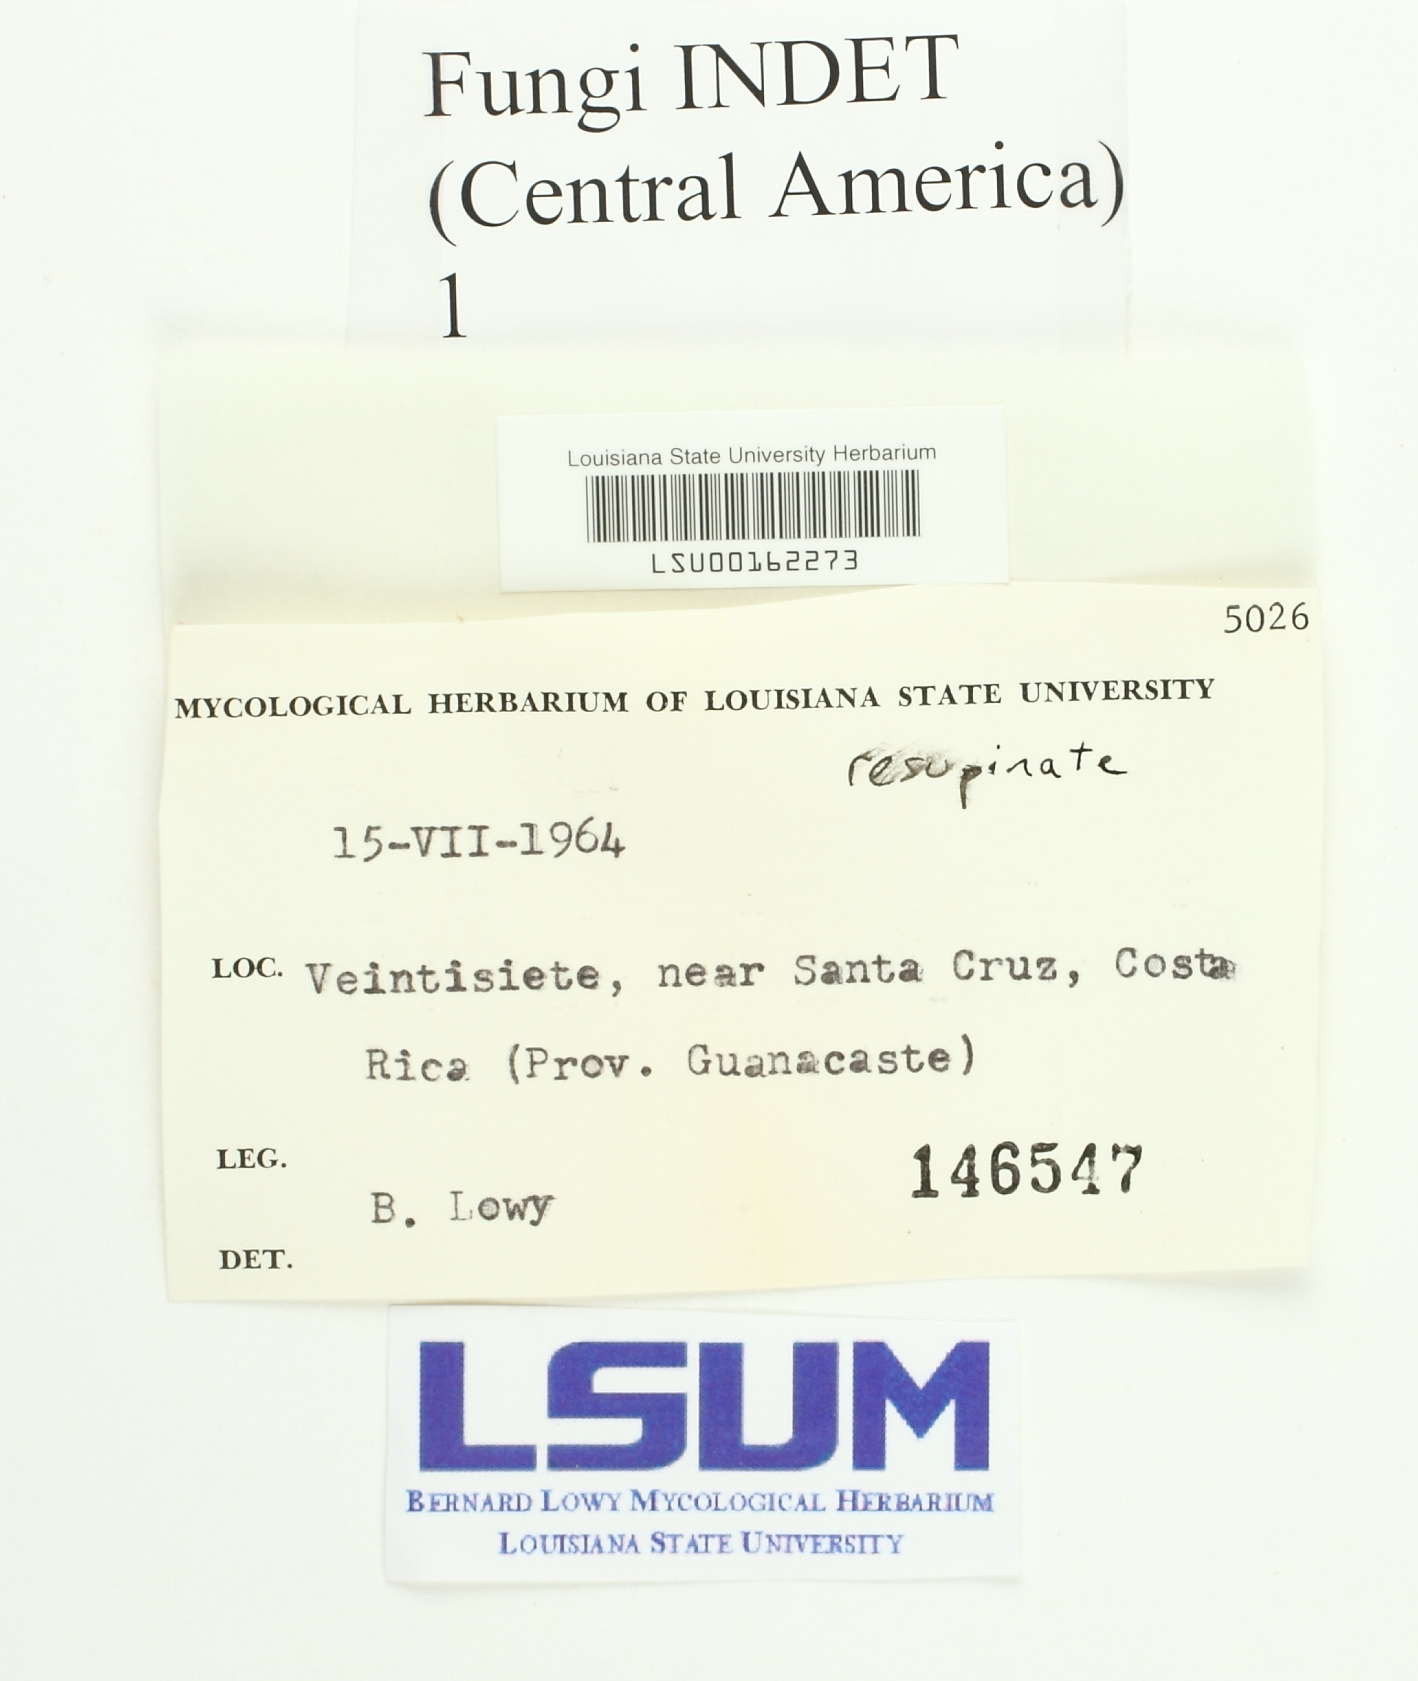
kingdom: Fungi
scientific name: Fungi
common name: Fungi
